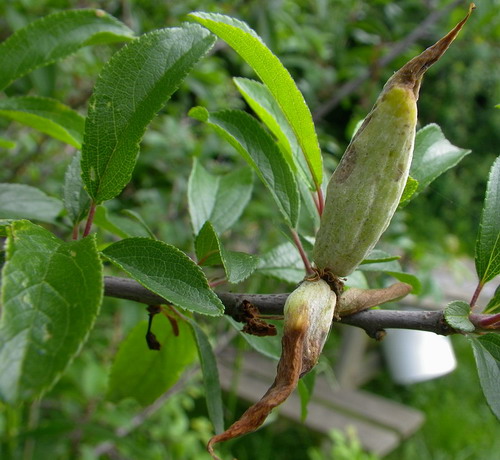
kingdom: Fungi
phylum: Ascomycota
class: Taphrinomycetes
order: Taphrinales
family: Taphrinaceae
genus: Taphrina
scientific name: Taphrina pruni
